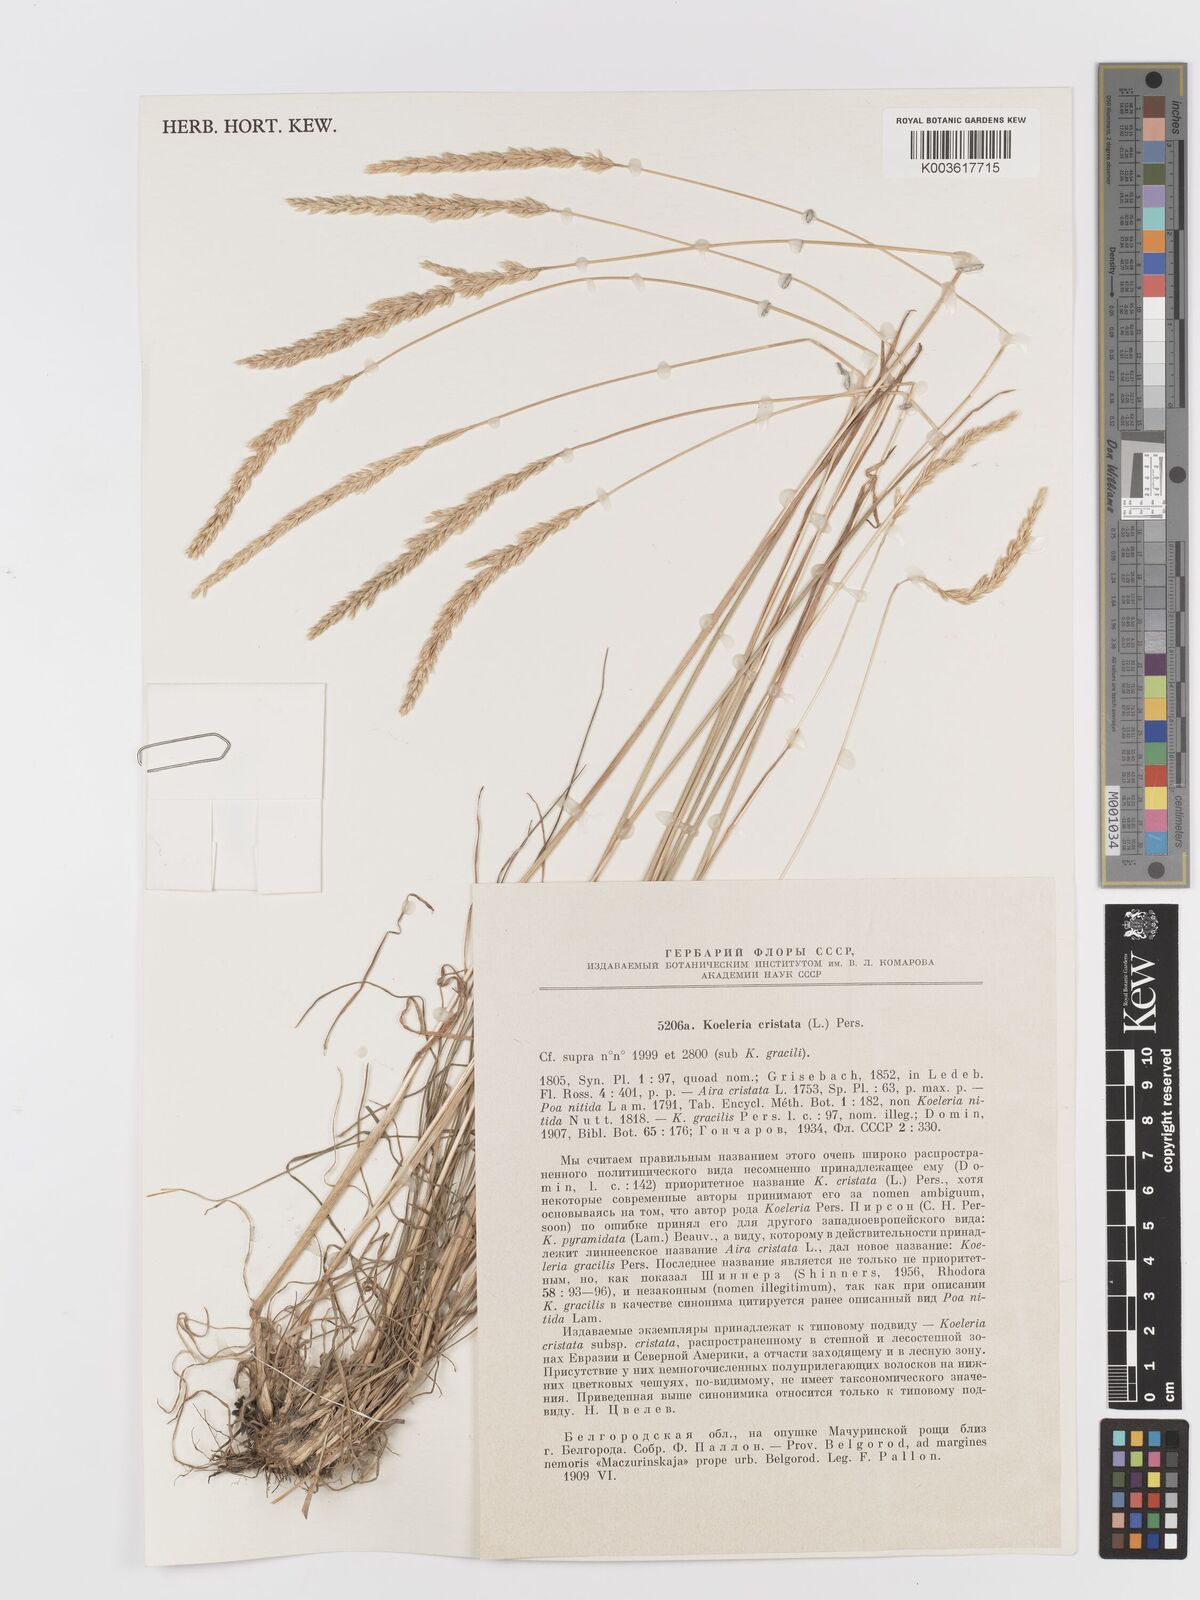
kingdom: Plantae
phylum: Tracheophyta
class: Liliopsida
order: Poales
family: Poaceae
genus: Koeleria
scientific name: Koeleria macrantha
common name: Crested hair-grass
